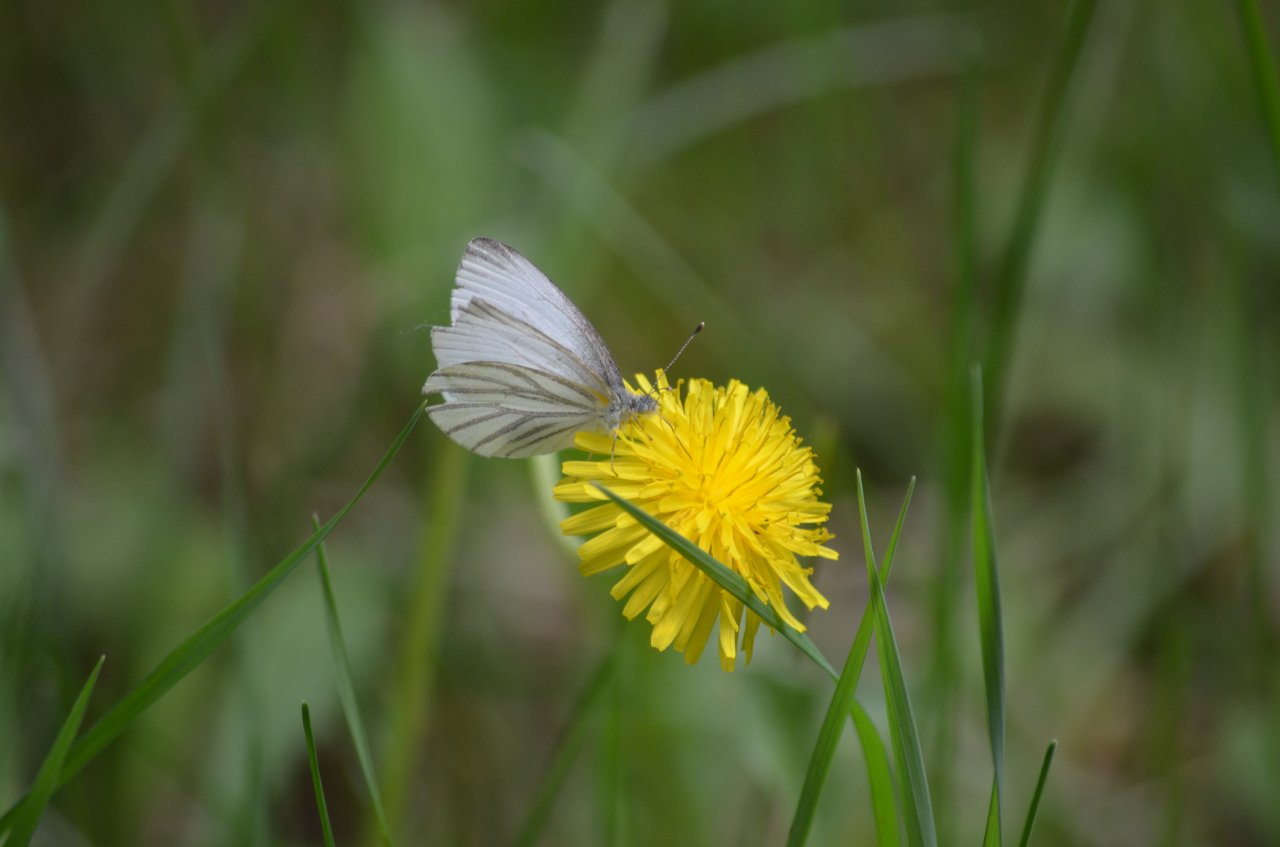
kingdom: Animalia
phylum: Arthropoda
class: Insecta
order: Lepidoptera
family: Pieridae
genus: Pieris
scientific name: Pieris oleracea
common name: Mustard White
